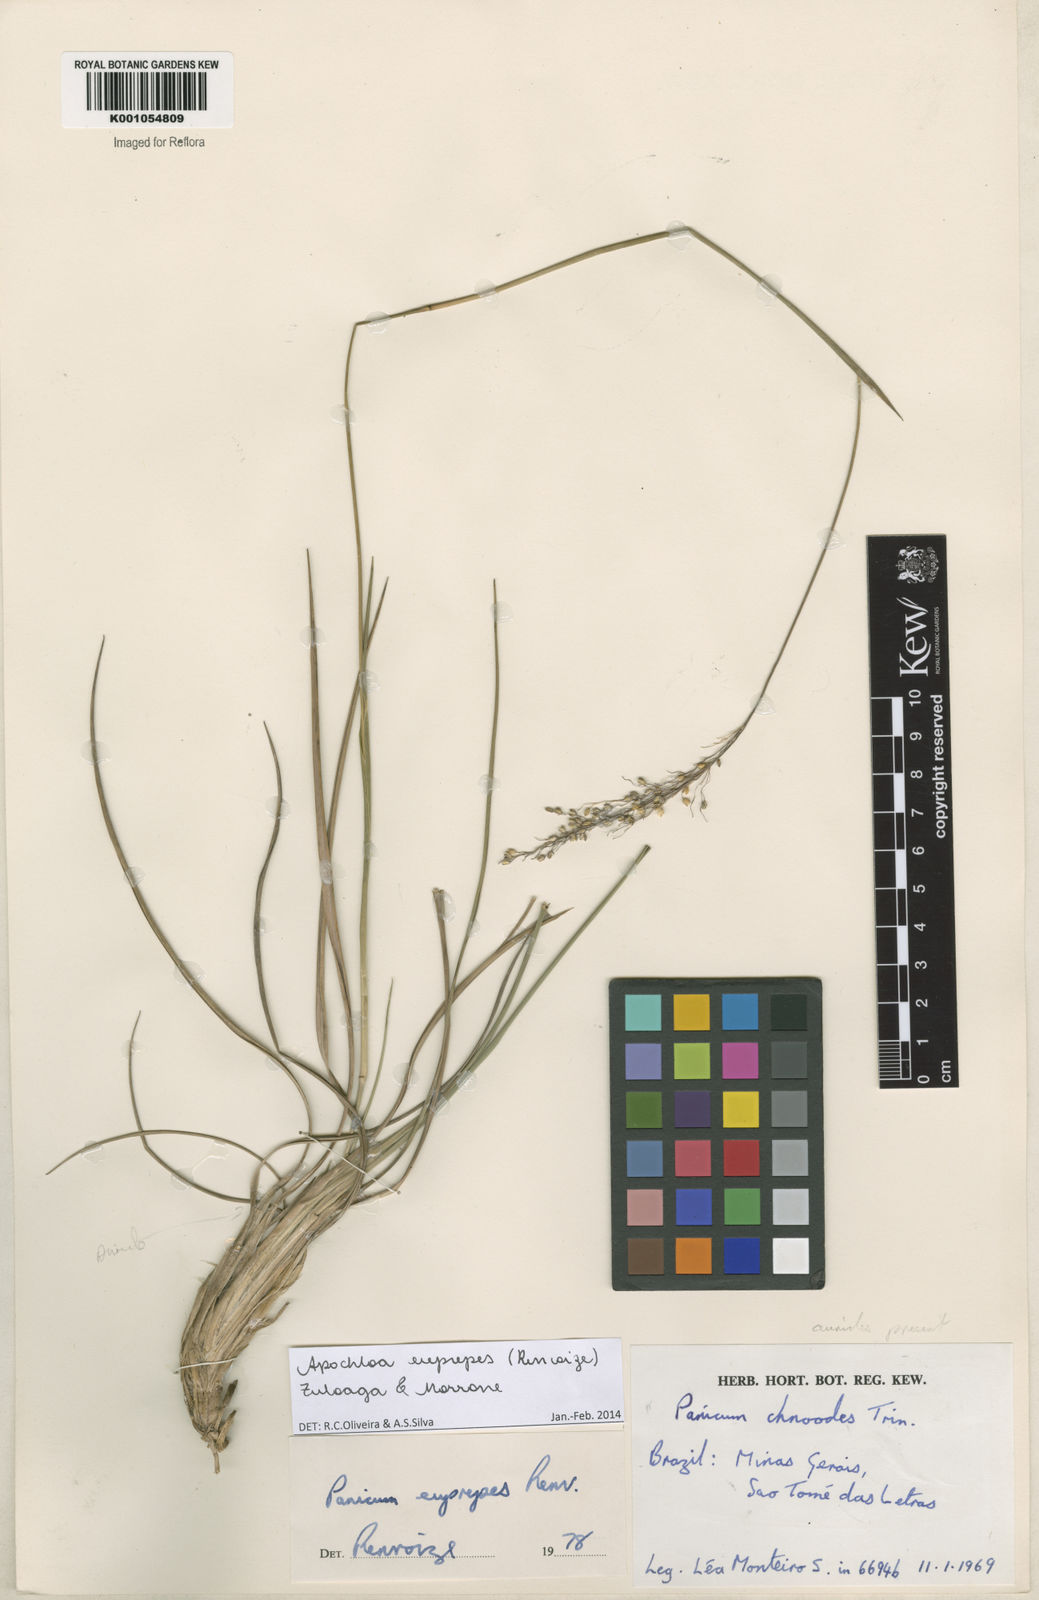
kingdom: Plantae
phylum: Tracheophyta
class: Liliopsida
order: Poales
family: Poaceae
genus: Apochloa
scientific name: Apochloa euprepes
